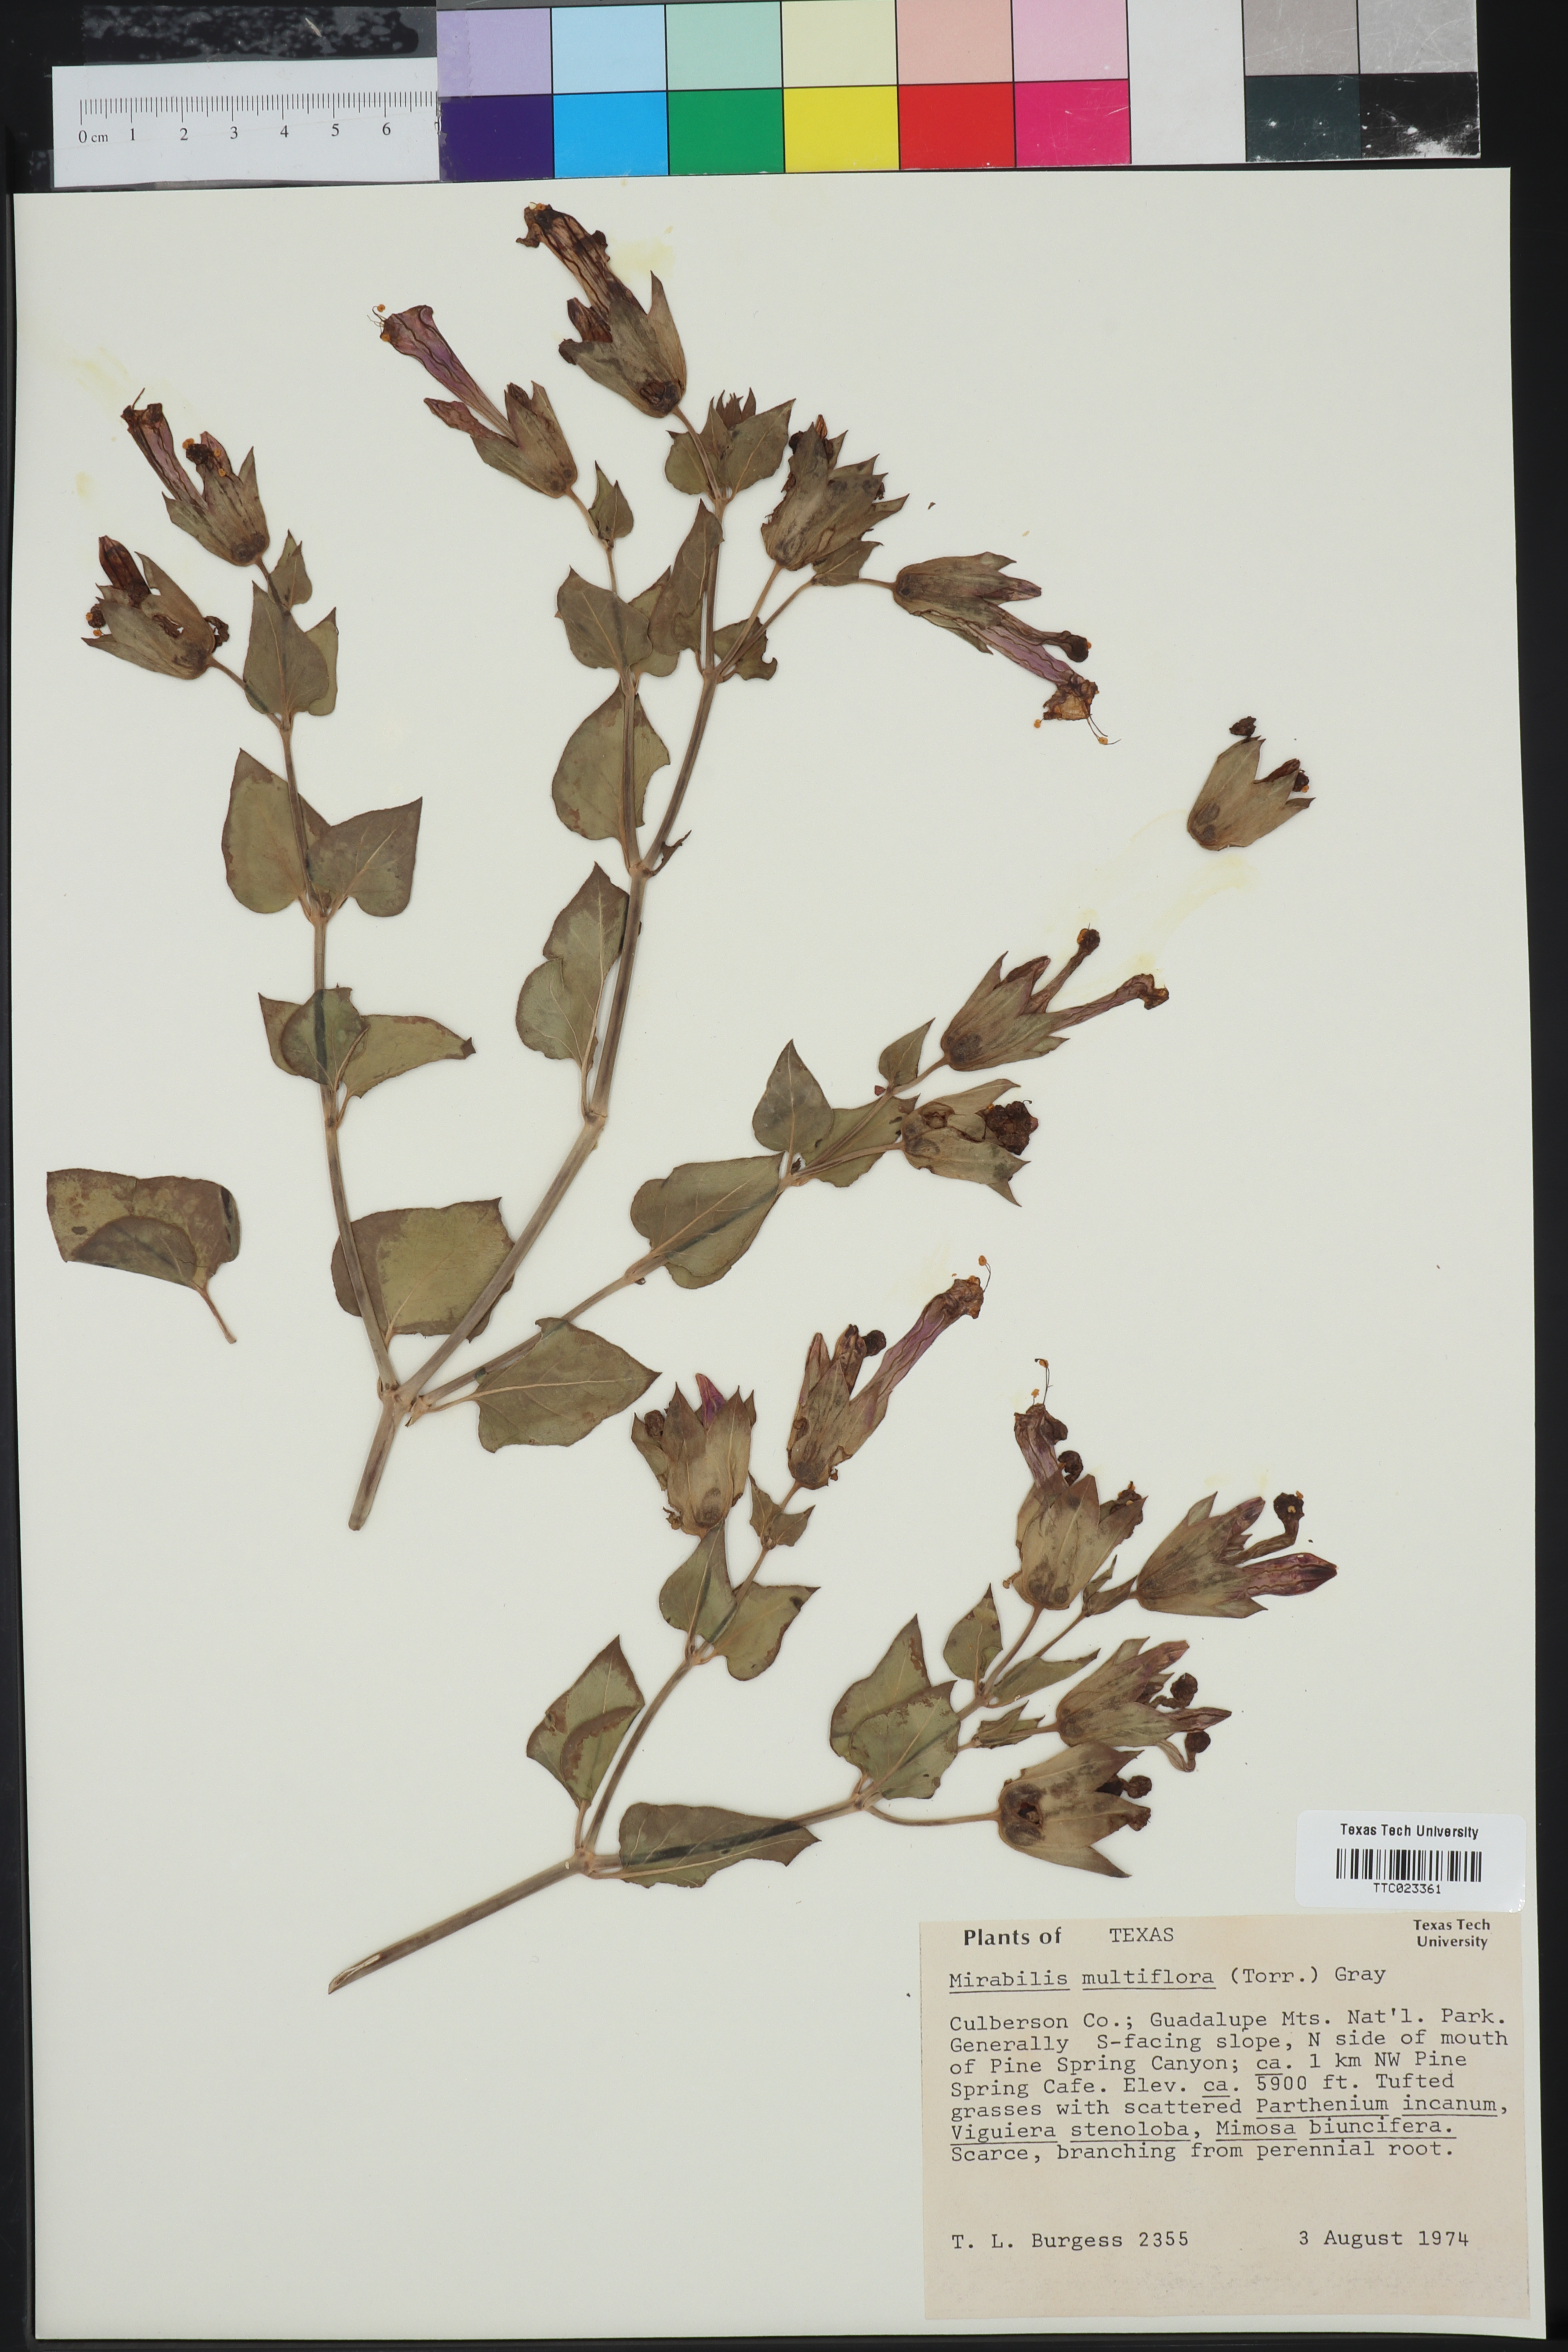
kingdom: Plantae
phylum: Tracheophyta
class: Magnoliopsida
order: Caryophyllales
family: Nyctaginaceae
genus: Mirabilis
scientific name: Mirabilis multiflora
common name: Froebel's four-o'clock
